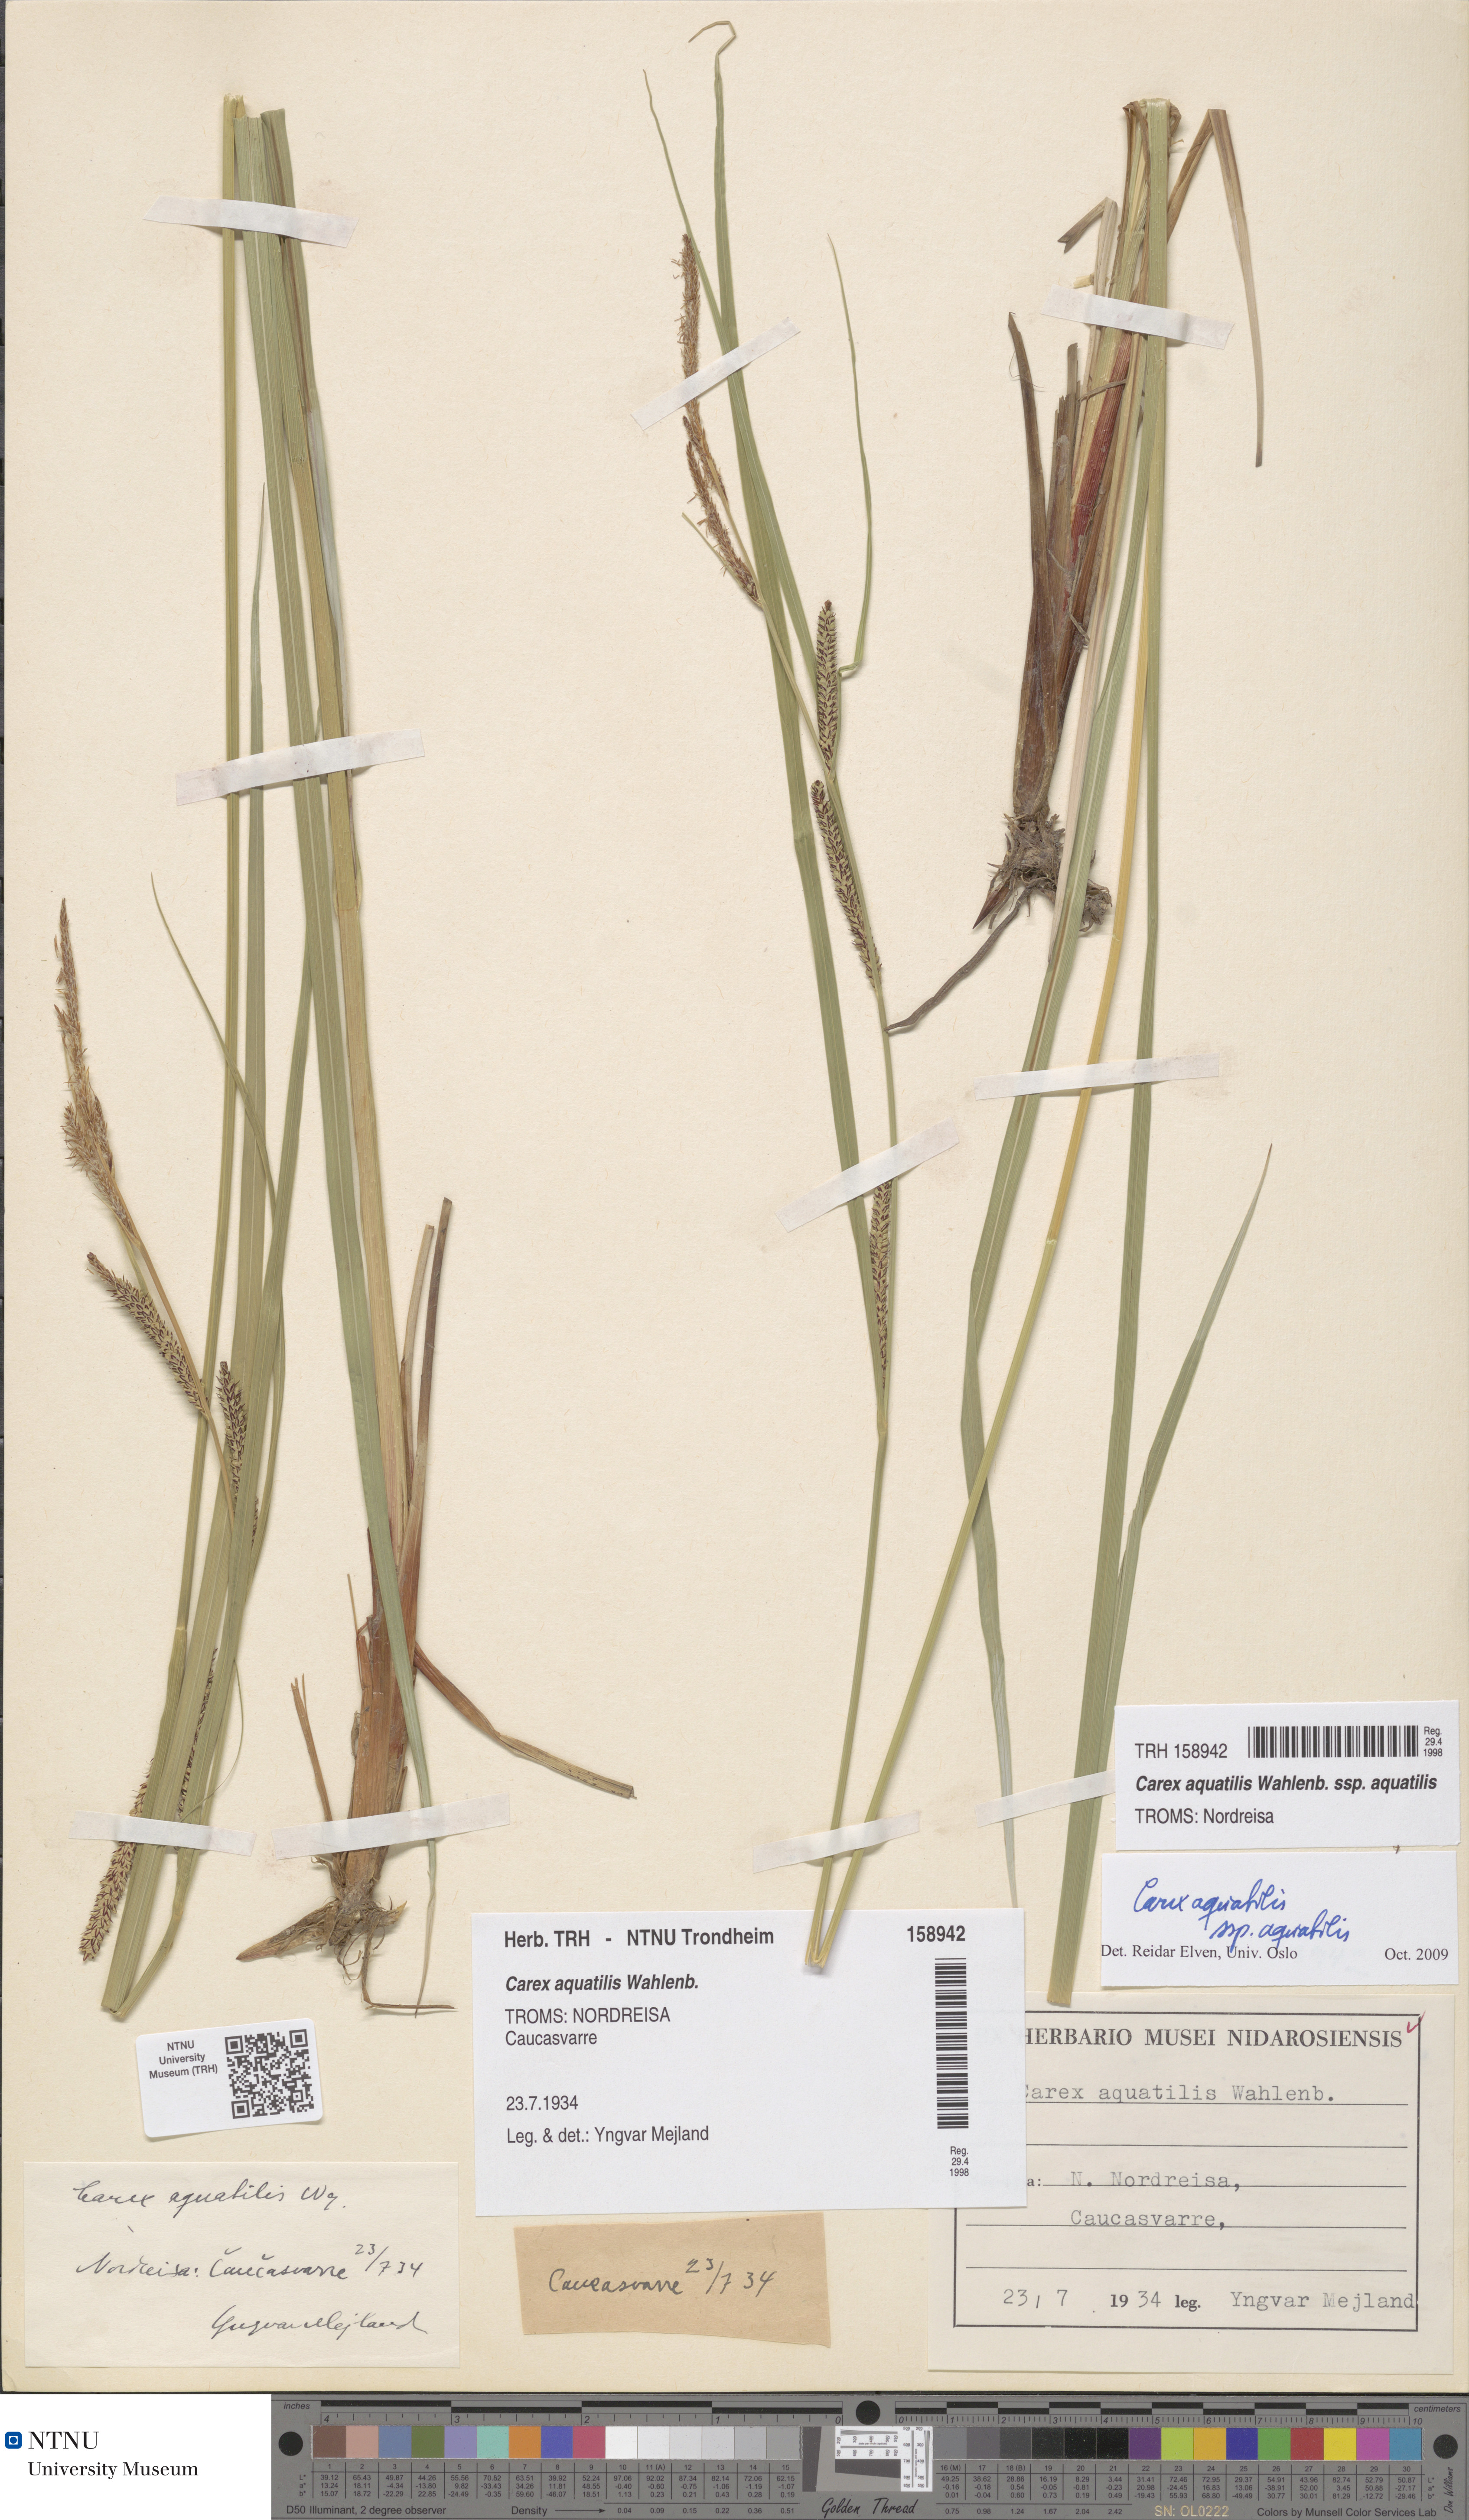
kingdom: Plantae
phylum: Tracheophyta
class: Liliopsida
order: Poales
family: Cyperaceae
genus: Carex
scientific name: Carex aquatilis
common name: Water sedge
